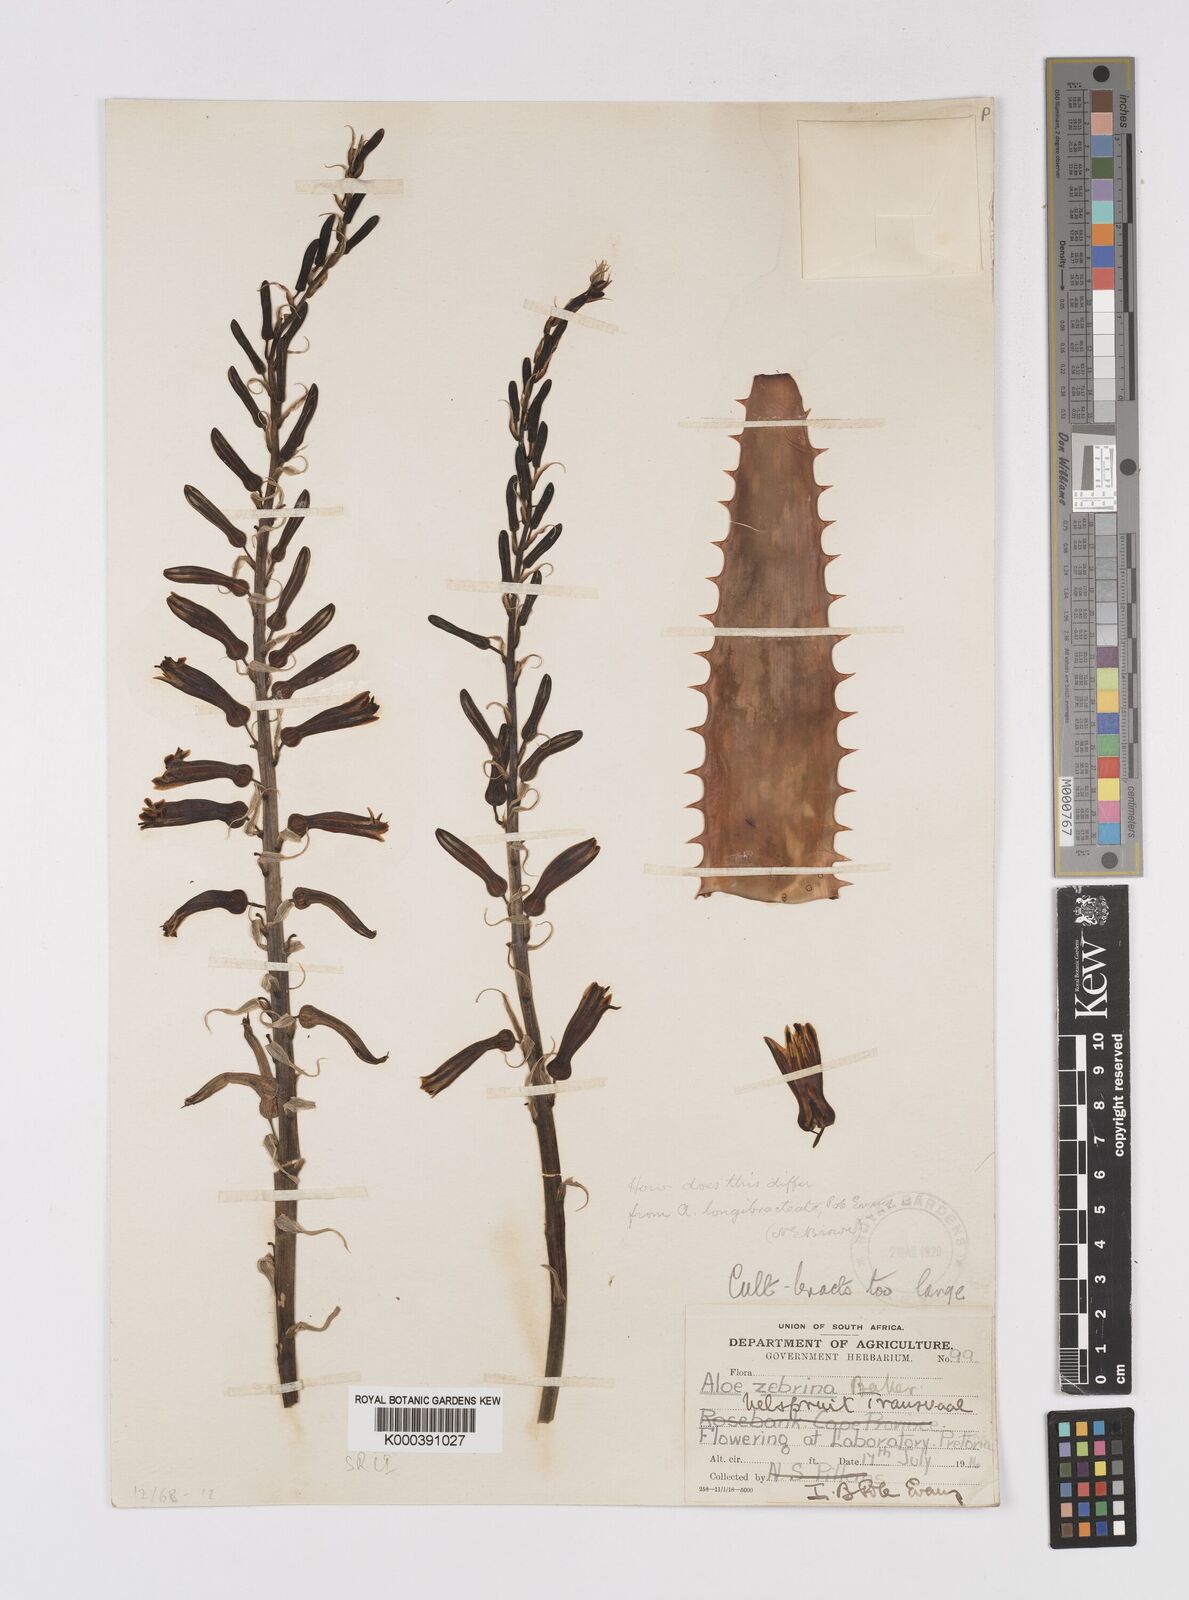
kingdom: Plantae
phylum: Tracheophyta
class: Liliopsida
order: Asparagales
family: Asphodelaceae
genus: Aloe
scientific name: Aloe zebrina
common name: Zebra-leaf aloe
